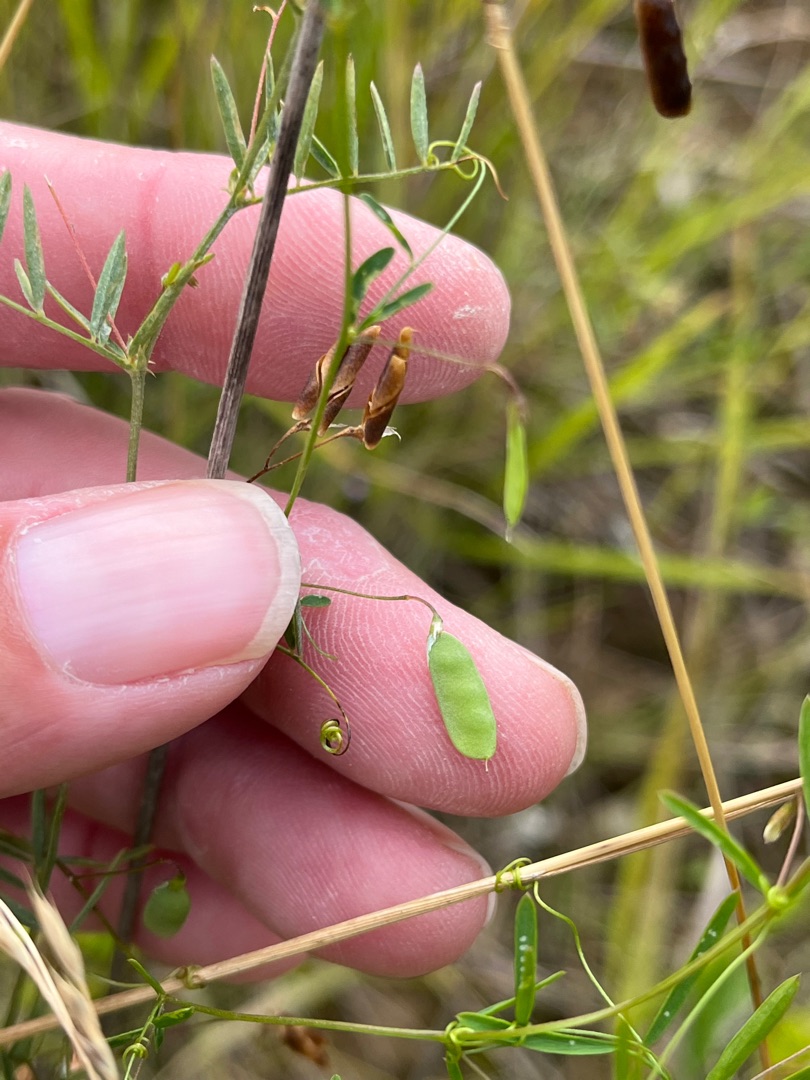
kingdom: Plantae
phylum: Tracheophyta
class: Magnoliopsida
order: Fabales
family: Fabaceae
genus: Vicia
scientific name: Vicia tetrasperma
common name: Tadder-vikke
